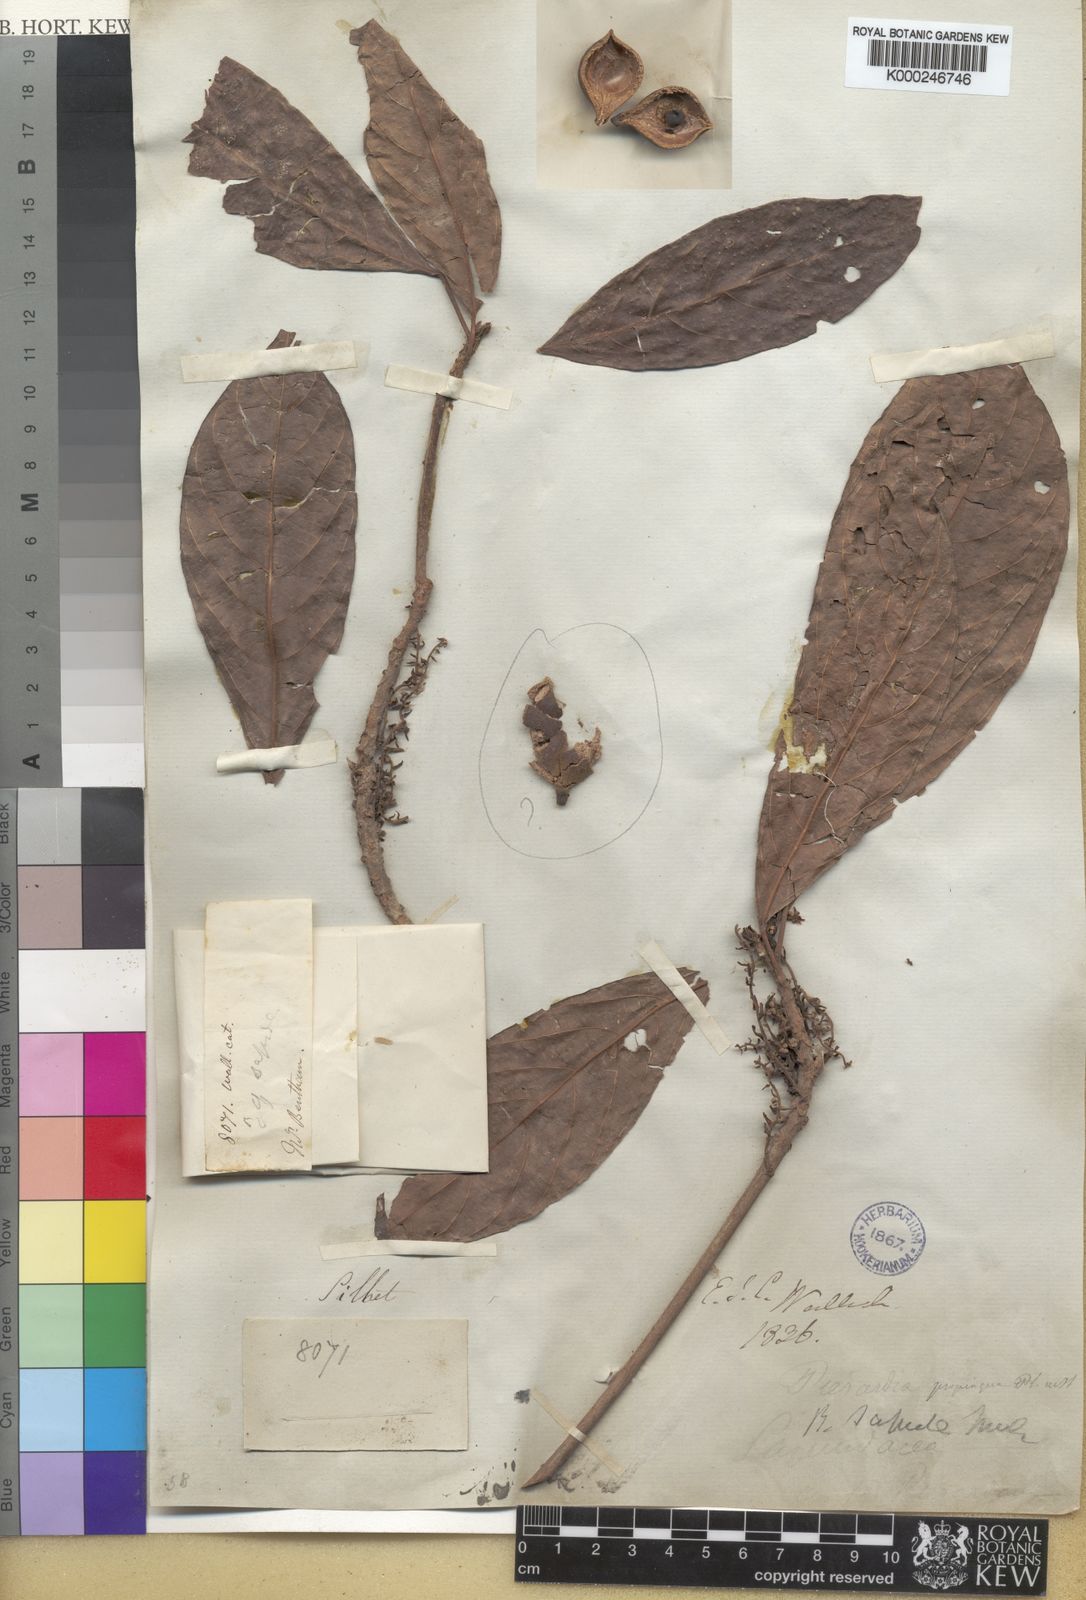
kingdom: Plantae
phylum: Tracheophyta
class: Magnoliopsida
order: Malpighiales
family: Phyllanthaceae
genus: Baccaurea
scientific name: Baccaurea ramiflora
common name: Baccaurea
